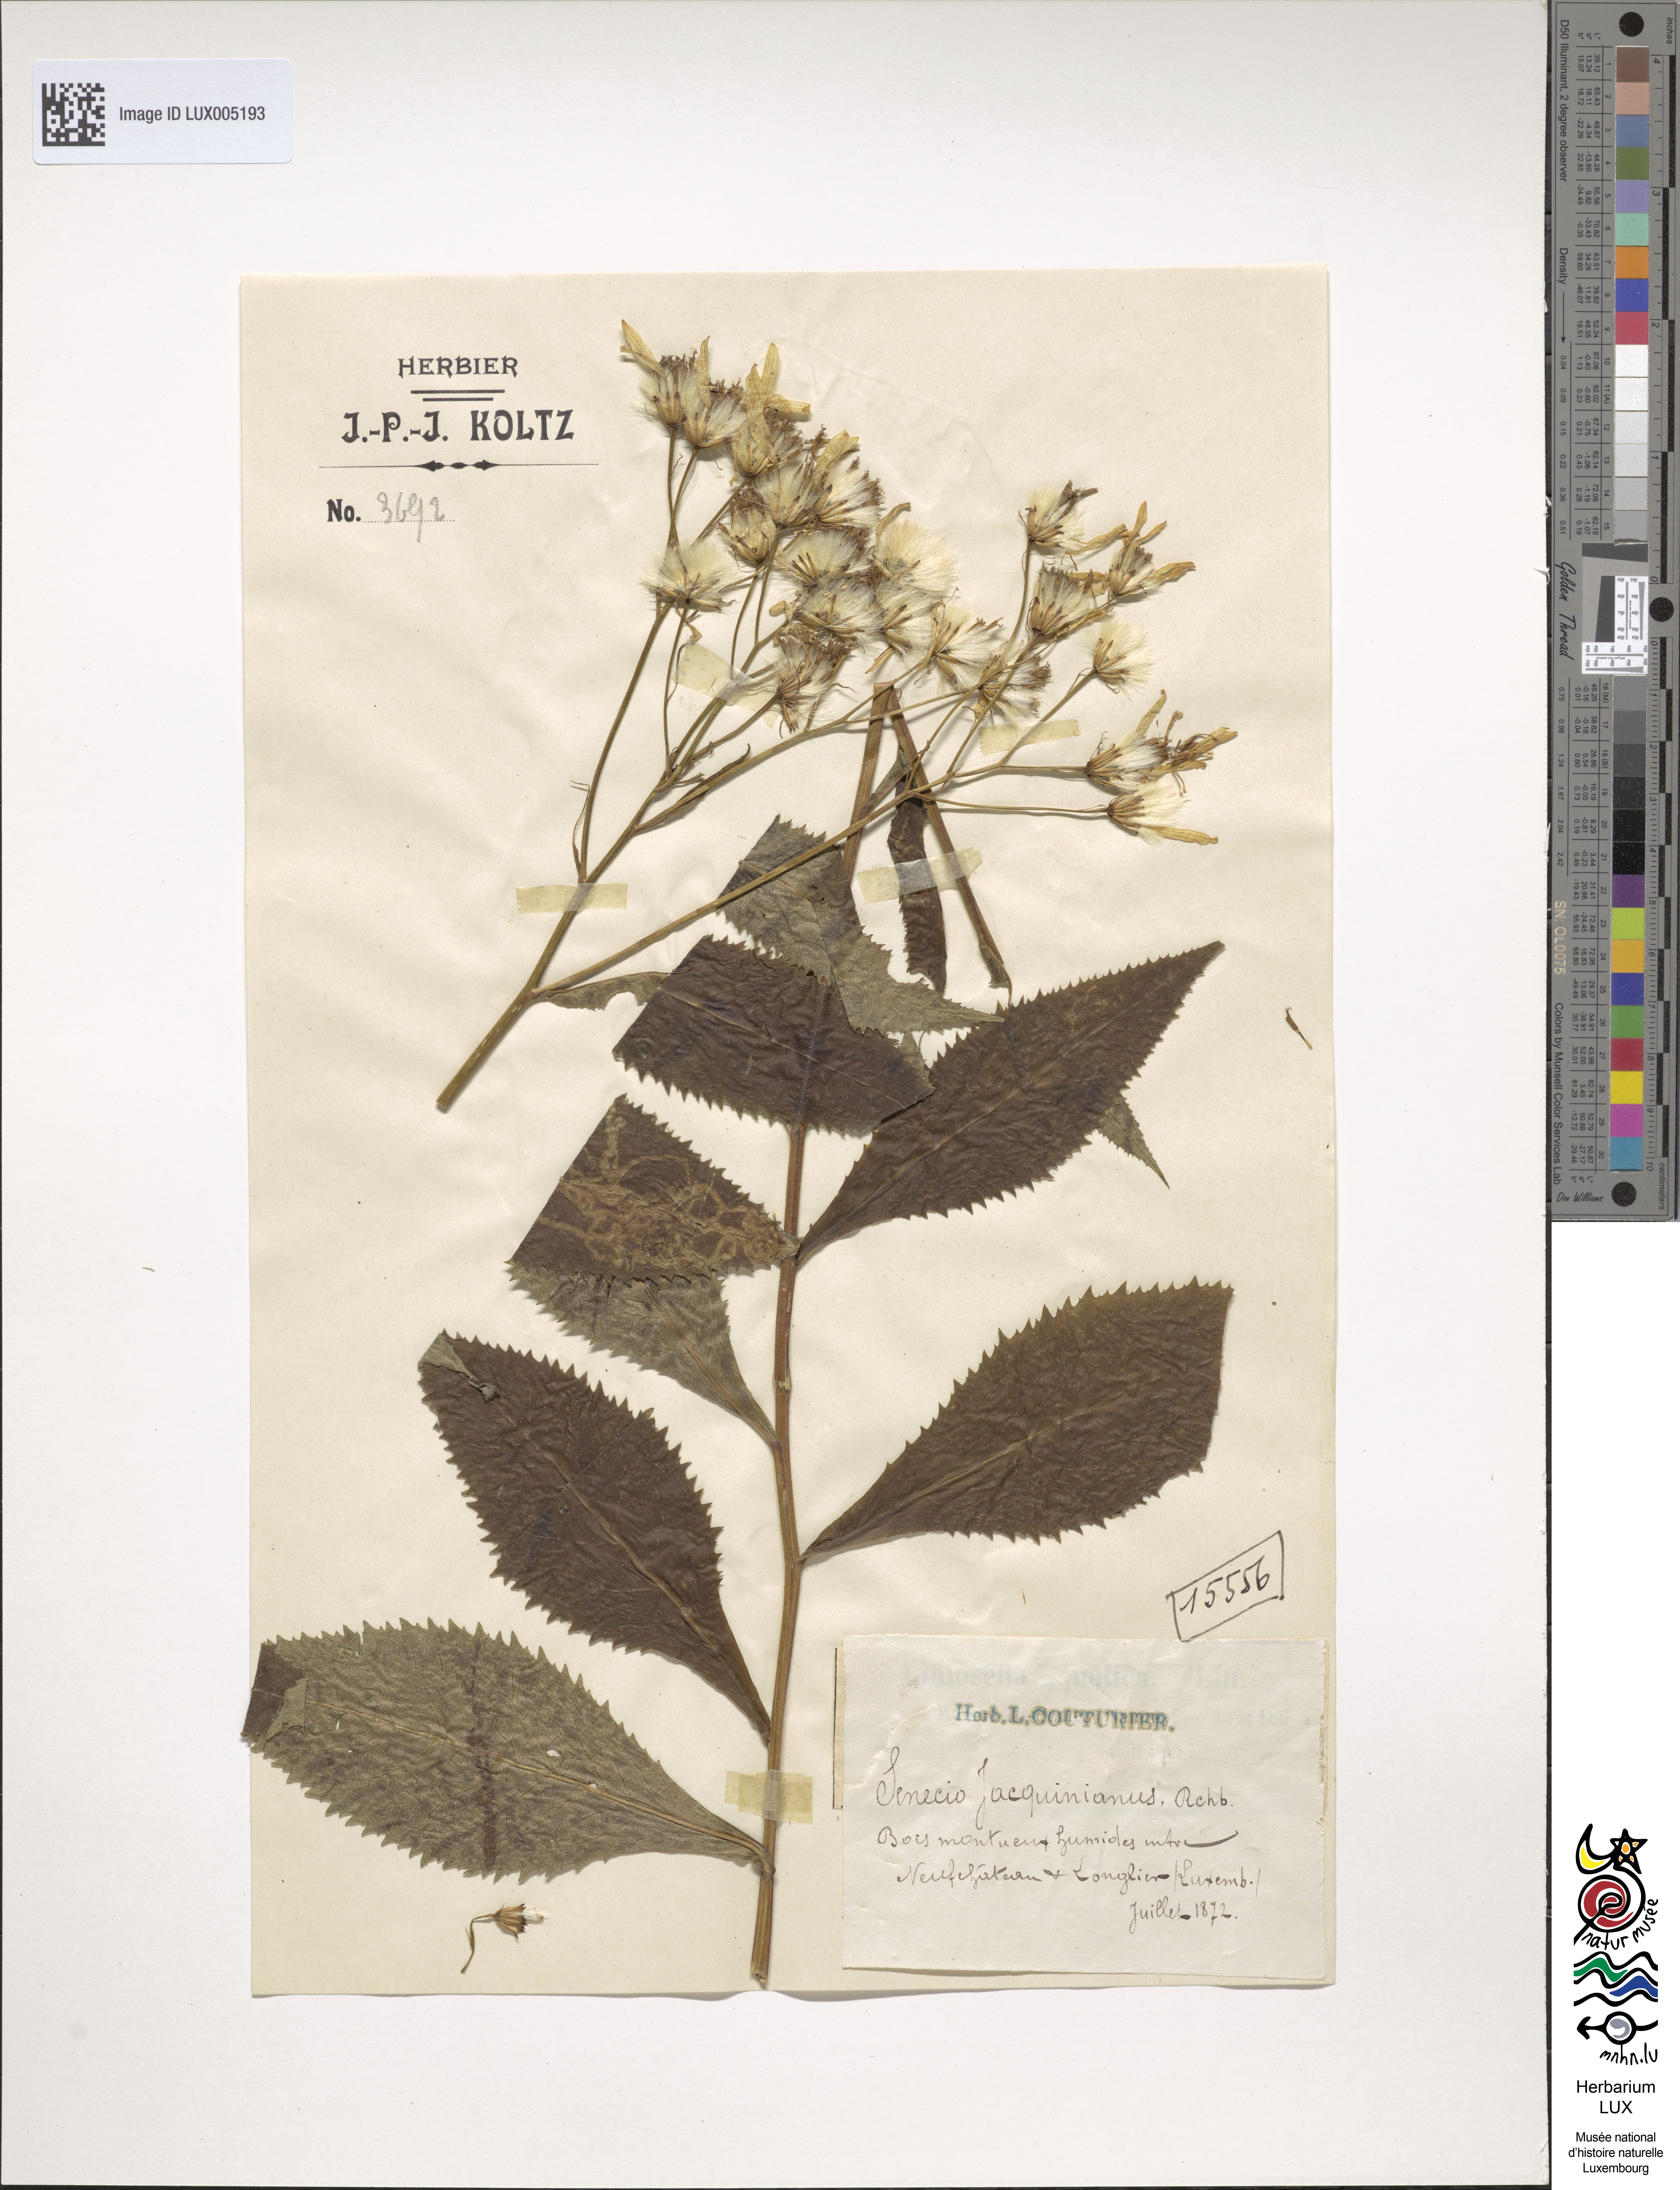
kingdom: Plantae
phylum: Tracheophyta
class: Magnoliopsida
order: Dipsacales
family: Caprifoliaceae
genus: Linnaea
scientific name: Linnaea borealis
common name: Twinflower
